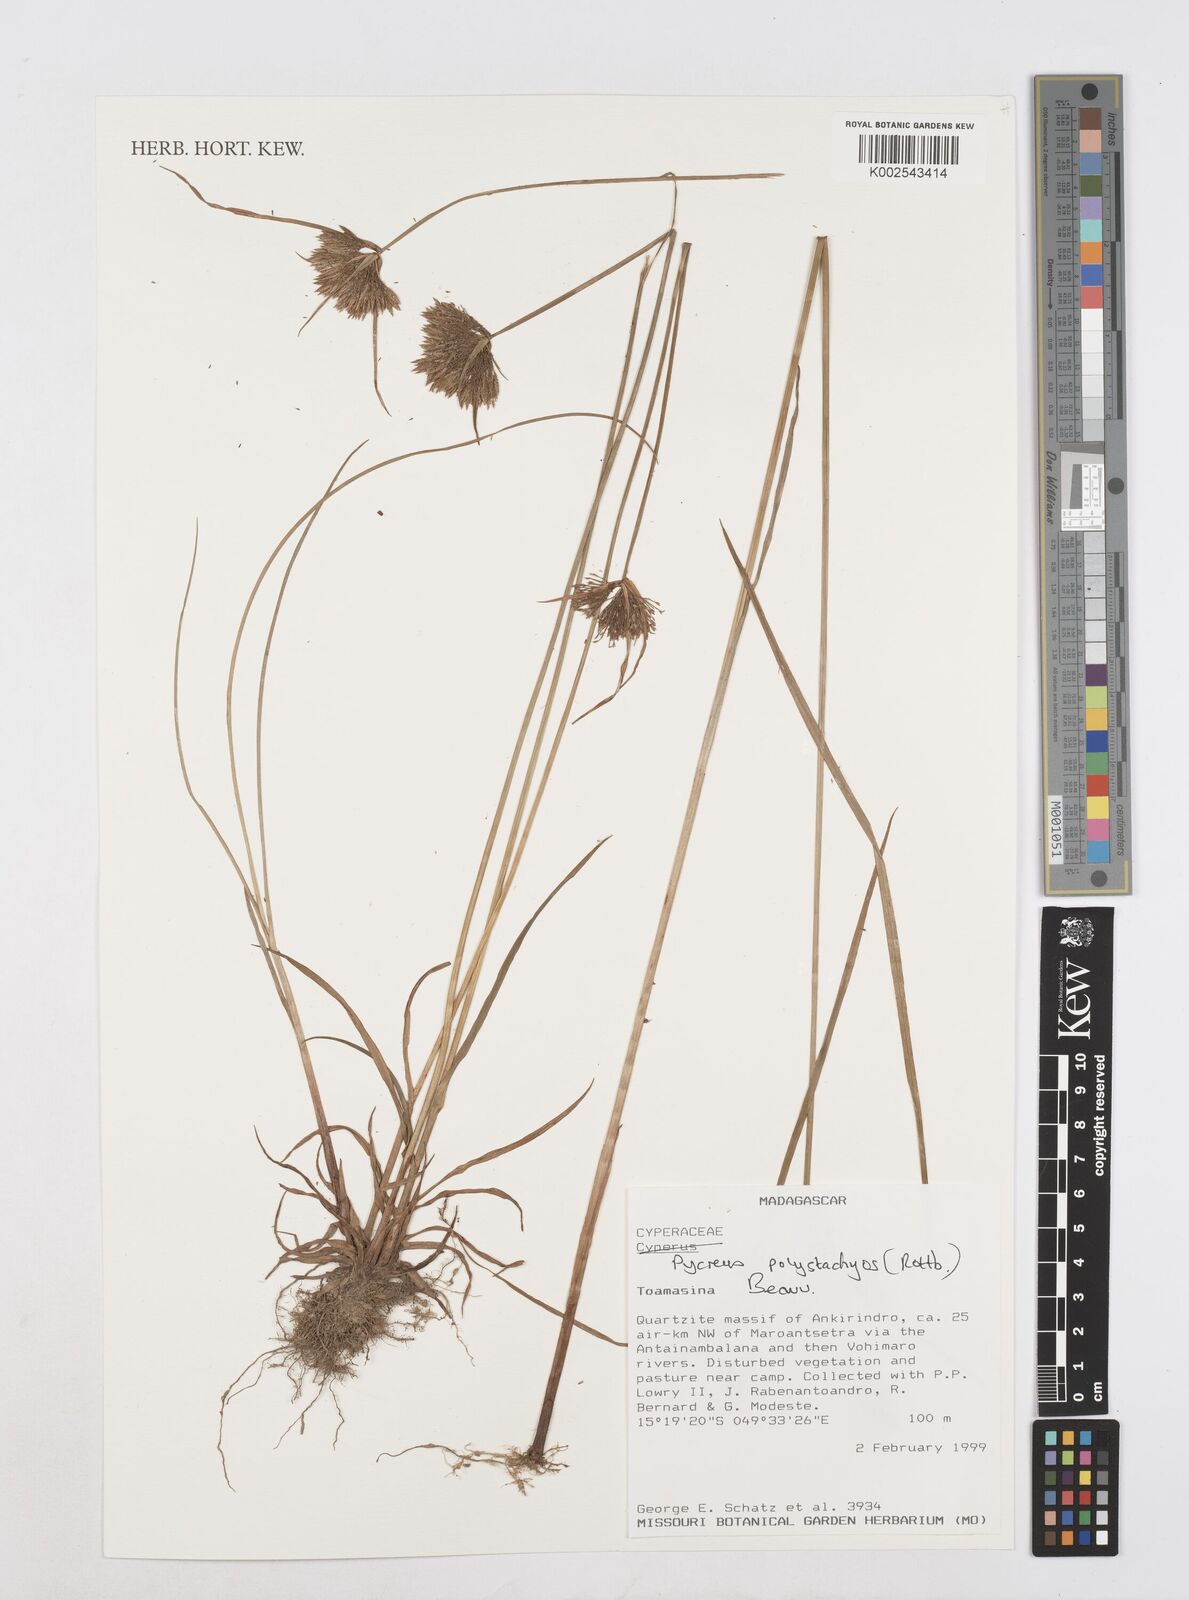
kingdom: Plantae
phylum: Tracheophyta
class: Liliopsida
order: Poales
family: Cyperaceae
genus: Cyperus
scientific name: Cyperus polystachyos
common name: Bunchy flat sedge
